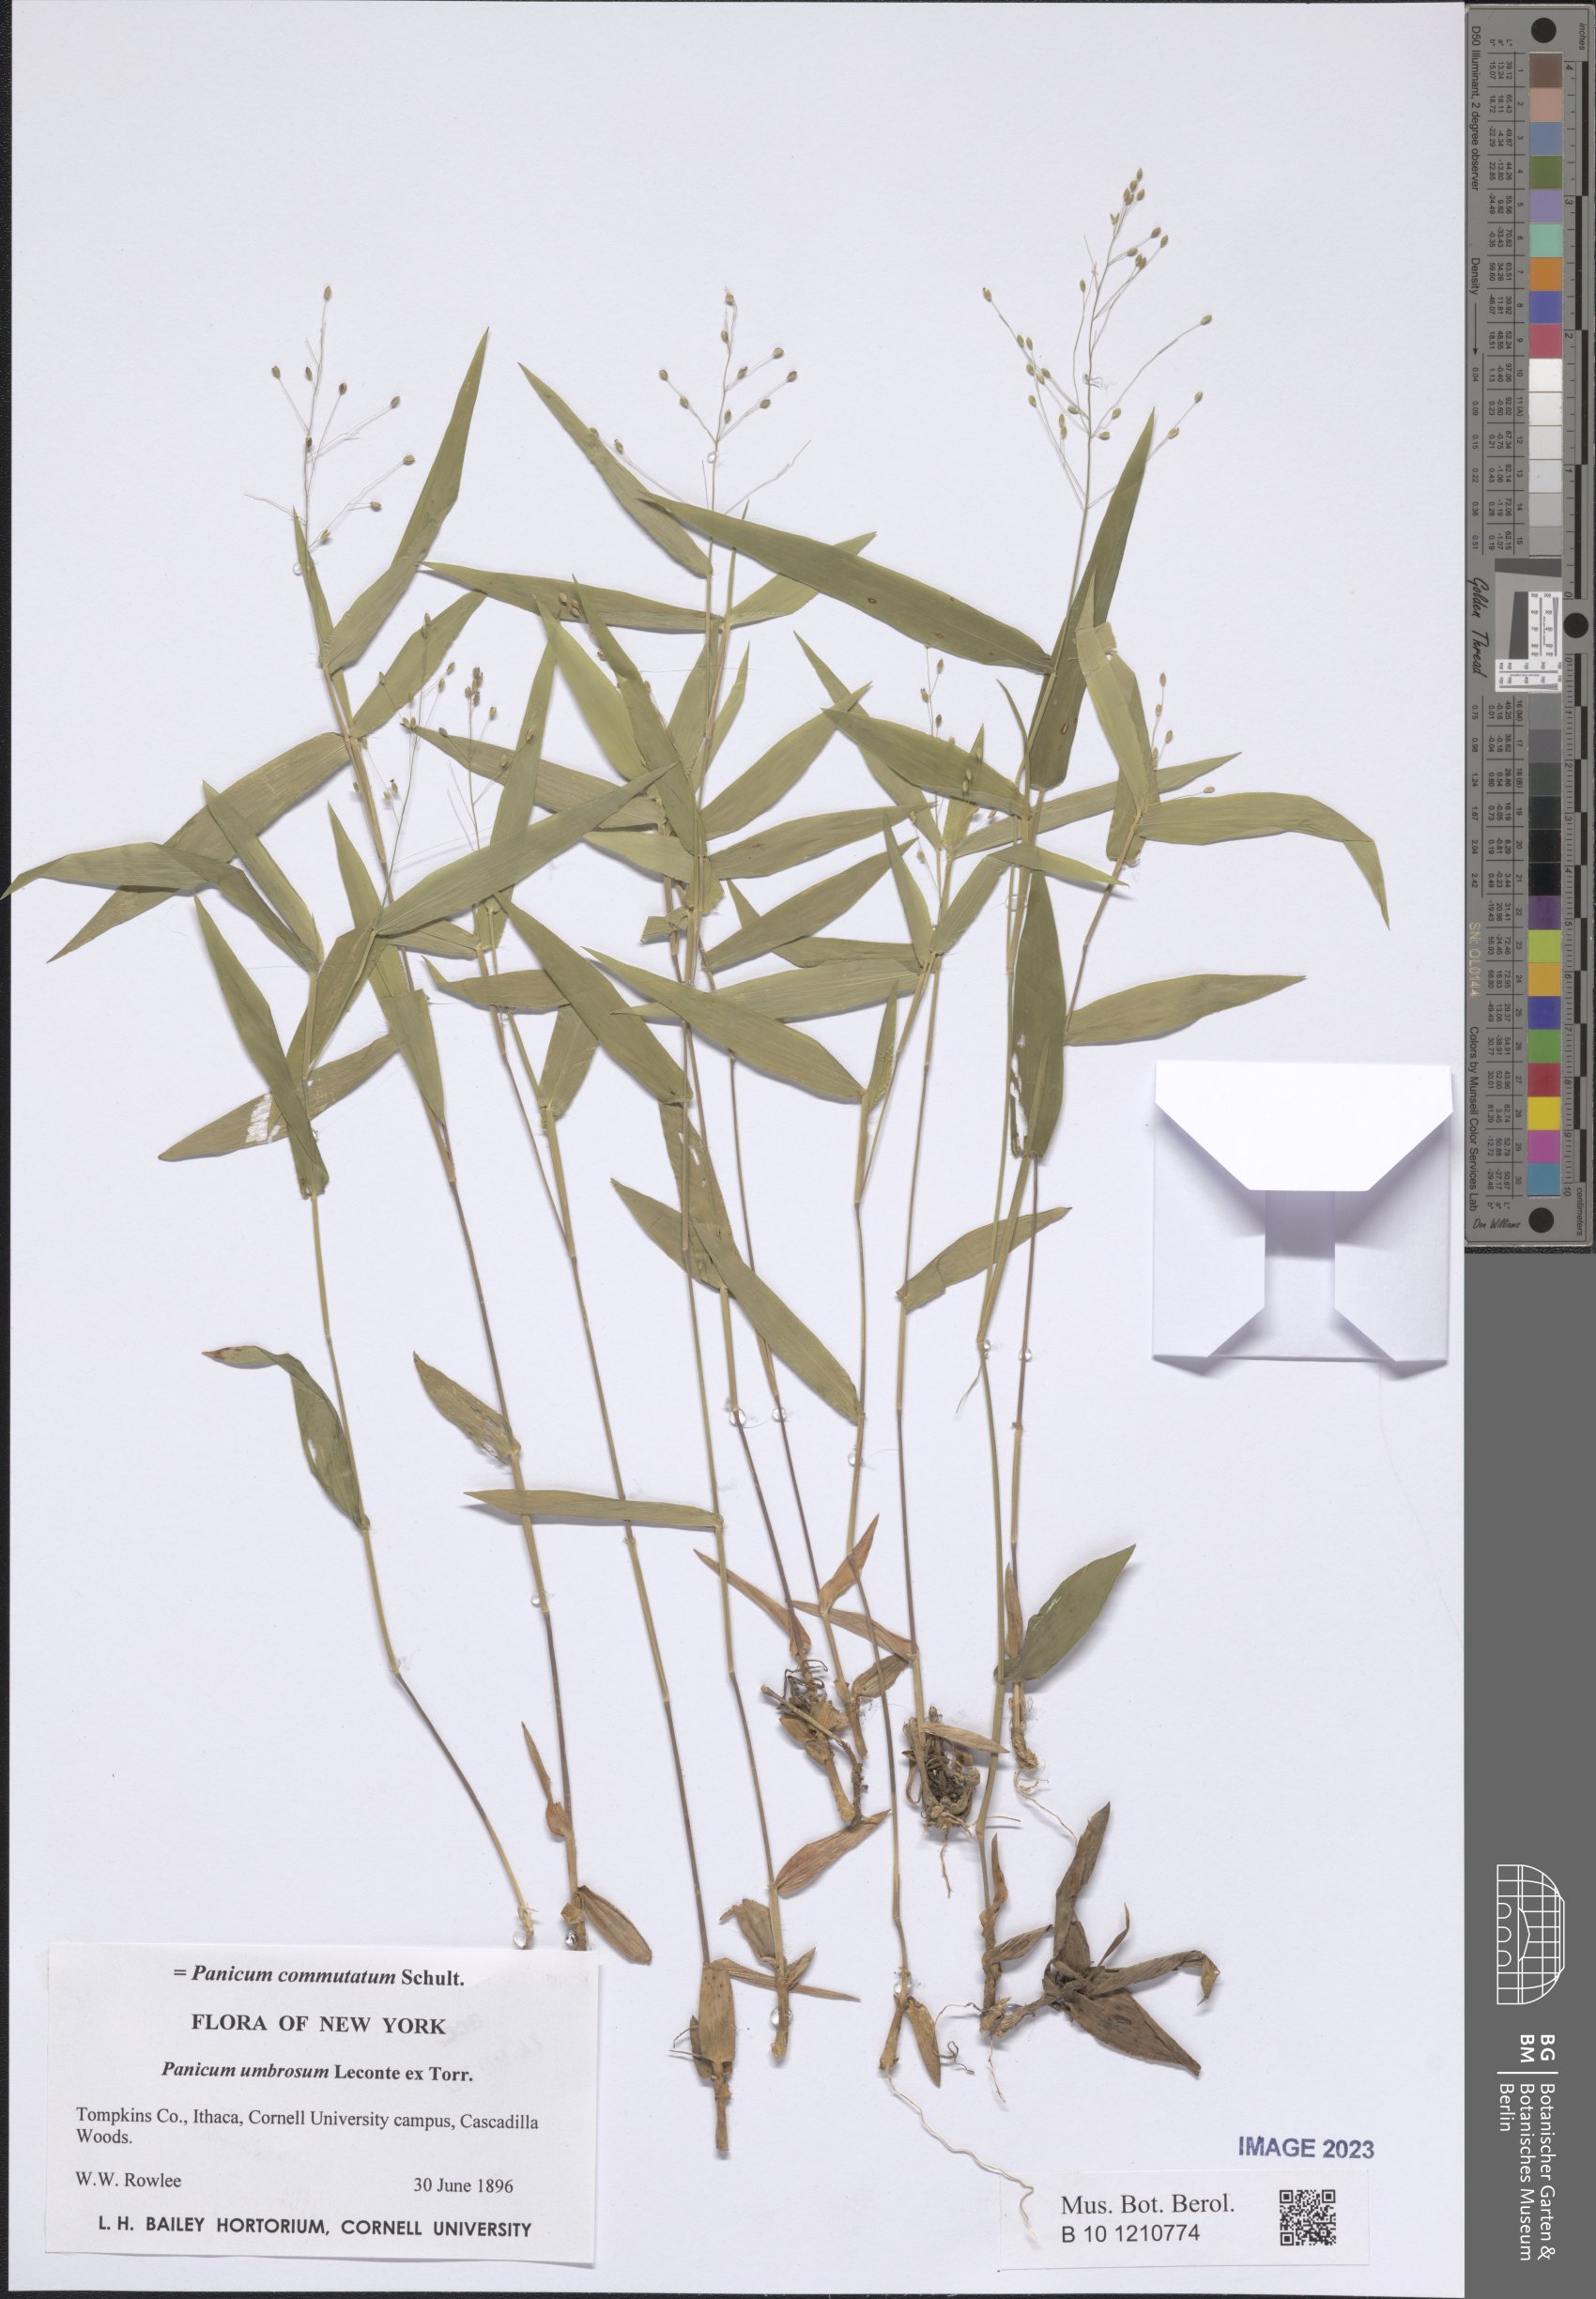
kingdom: Plantae
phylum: Tracheophyta
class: Liliopsida
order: Poales
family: Poaceae
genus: Dichanthelium
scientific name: Dichanthelium commutatum
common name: Variable witchgrass
